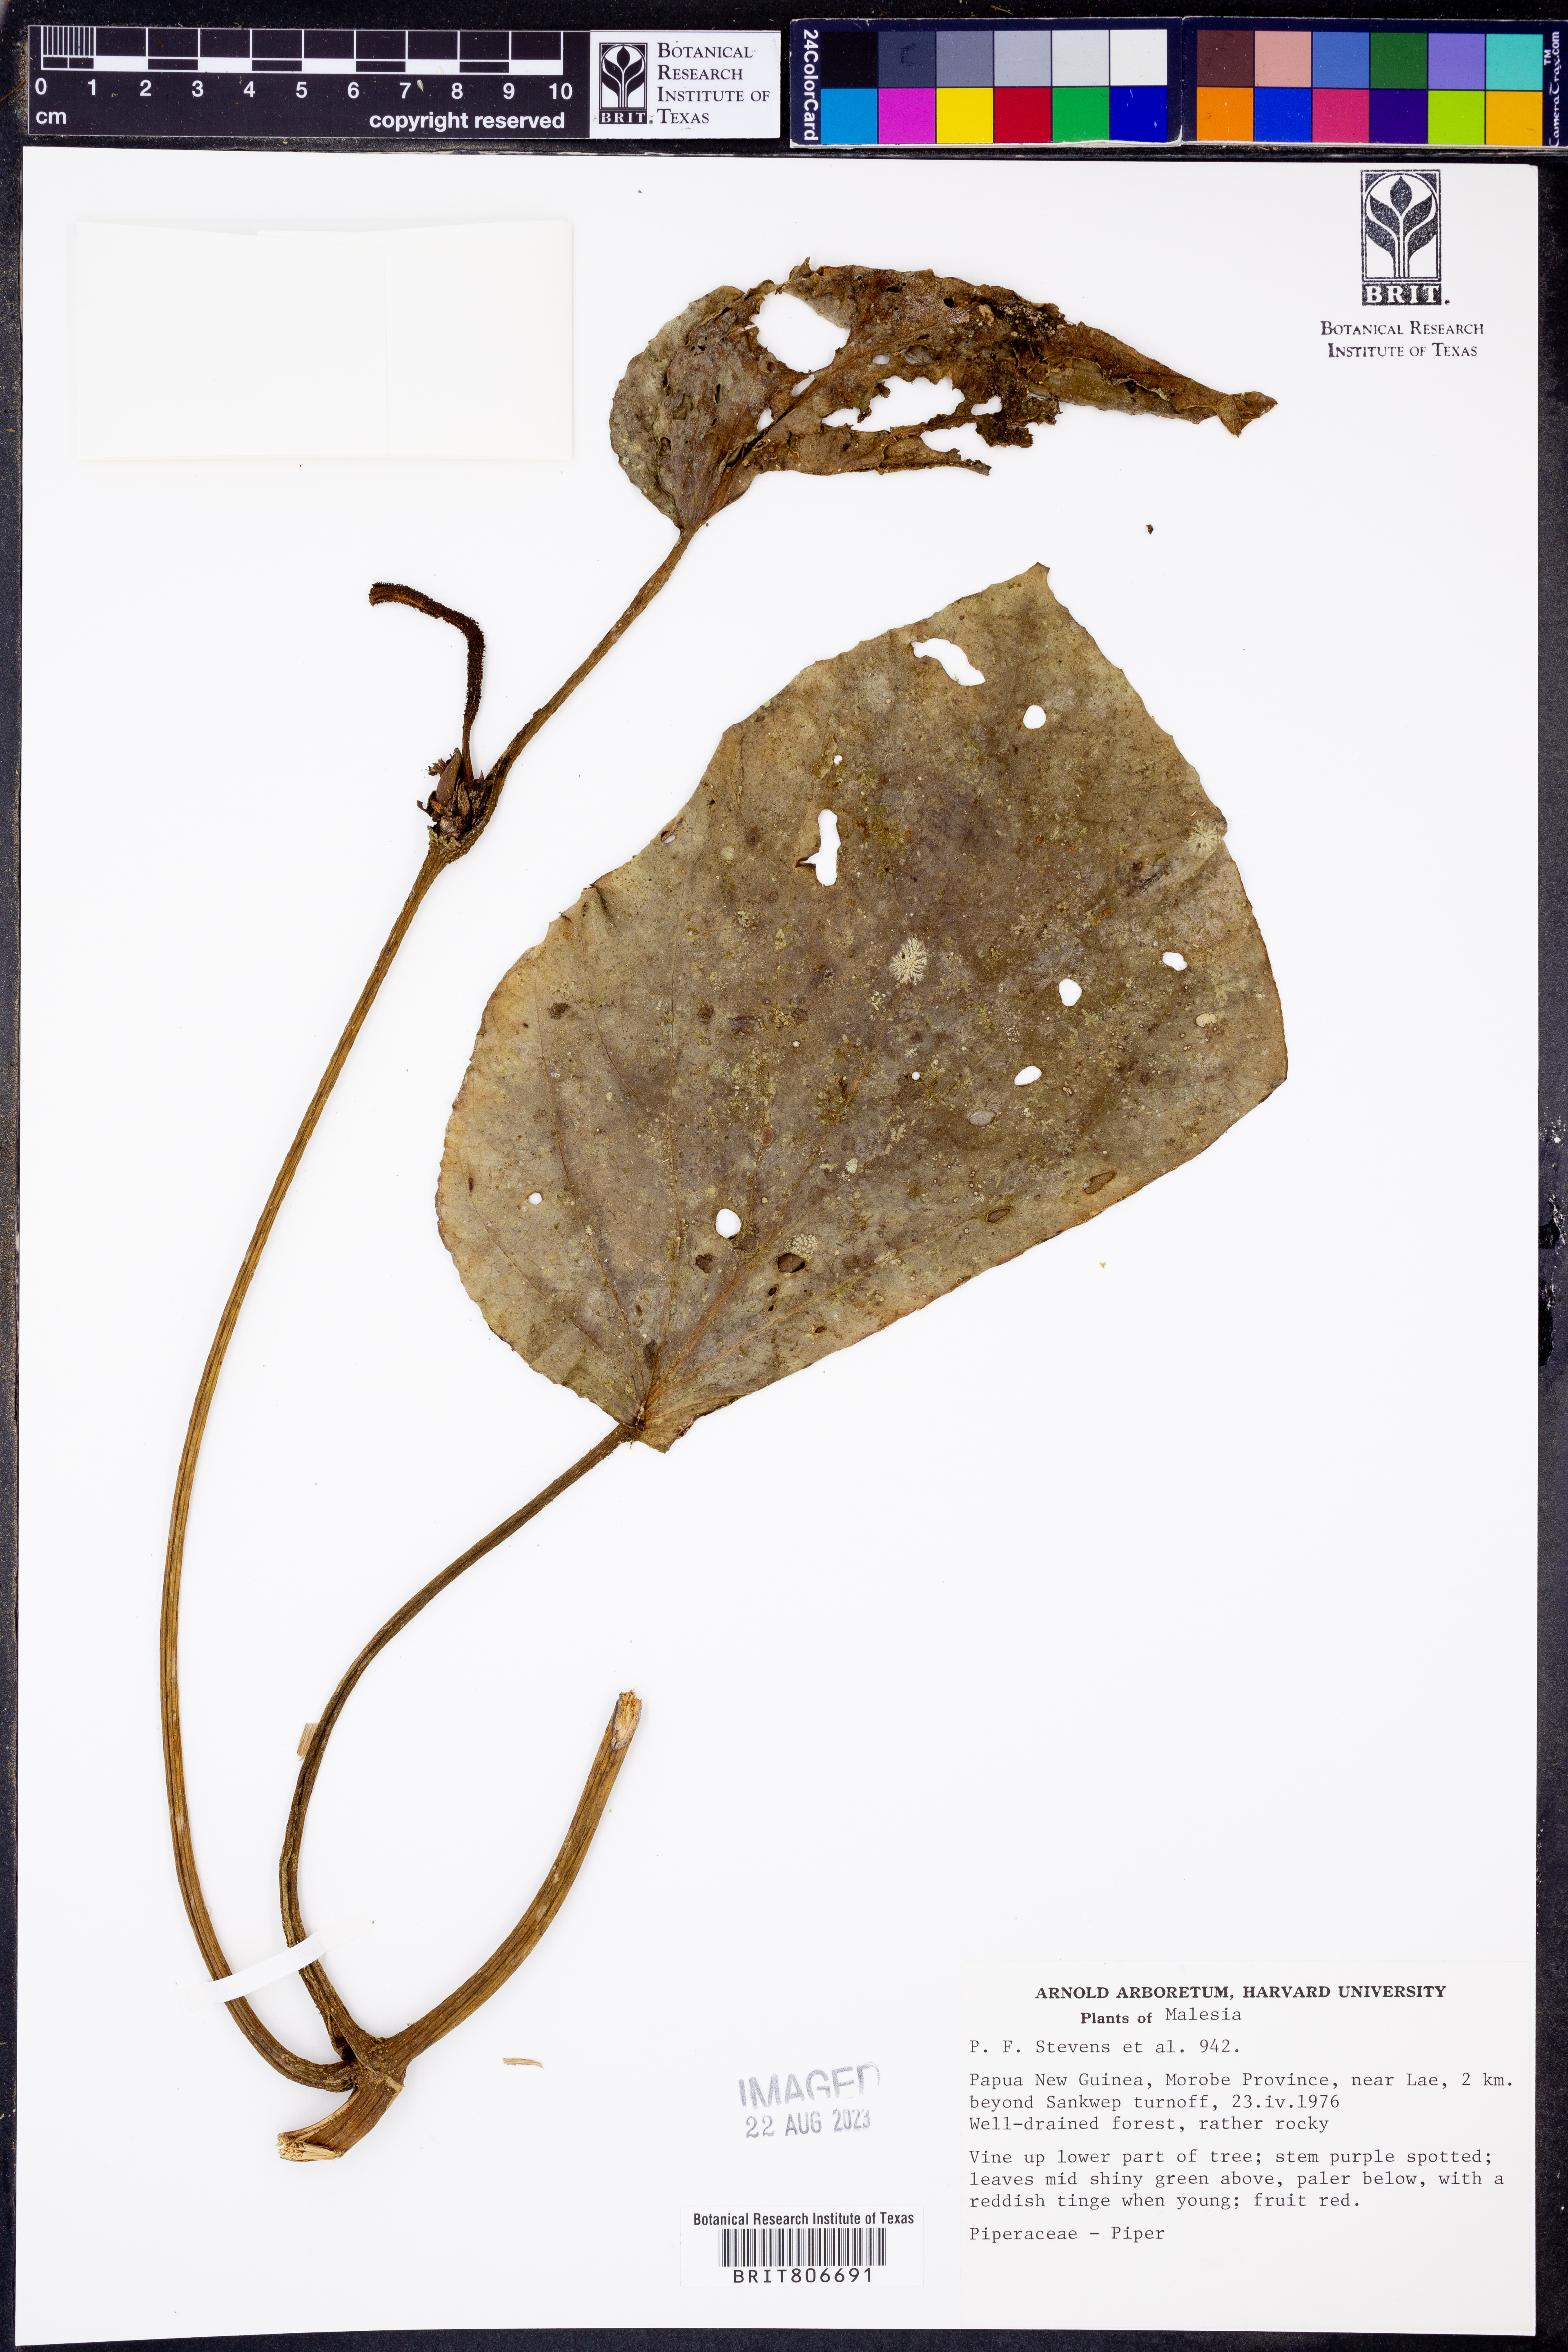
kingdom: Plantae
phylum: Tracheophyta
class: Magnoliopsida
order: Piperales
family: Piperaceae
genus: Piper
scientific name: Piper
